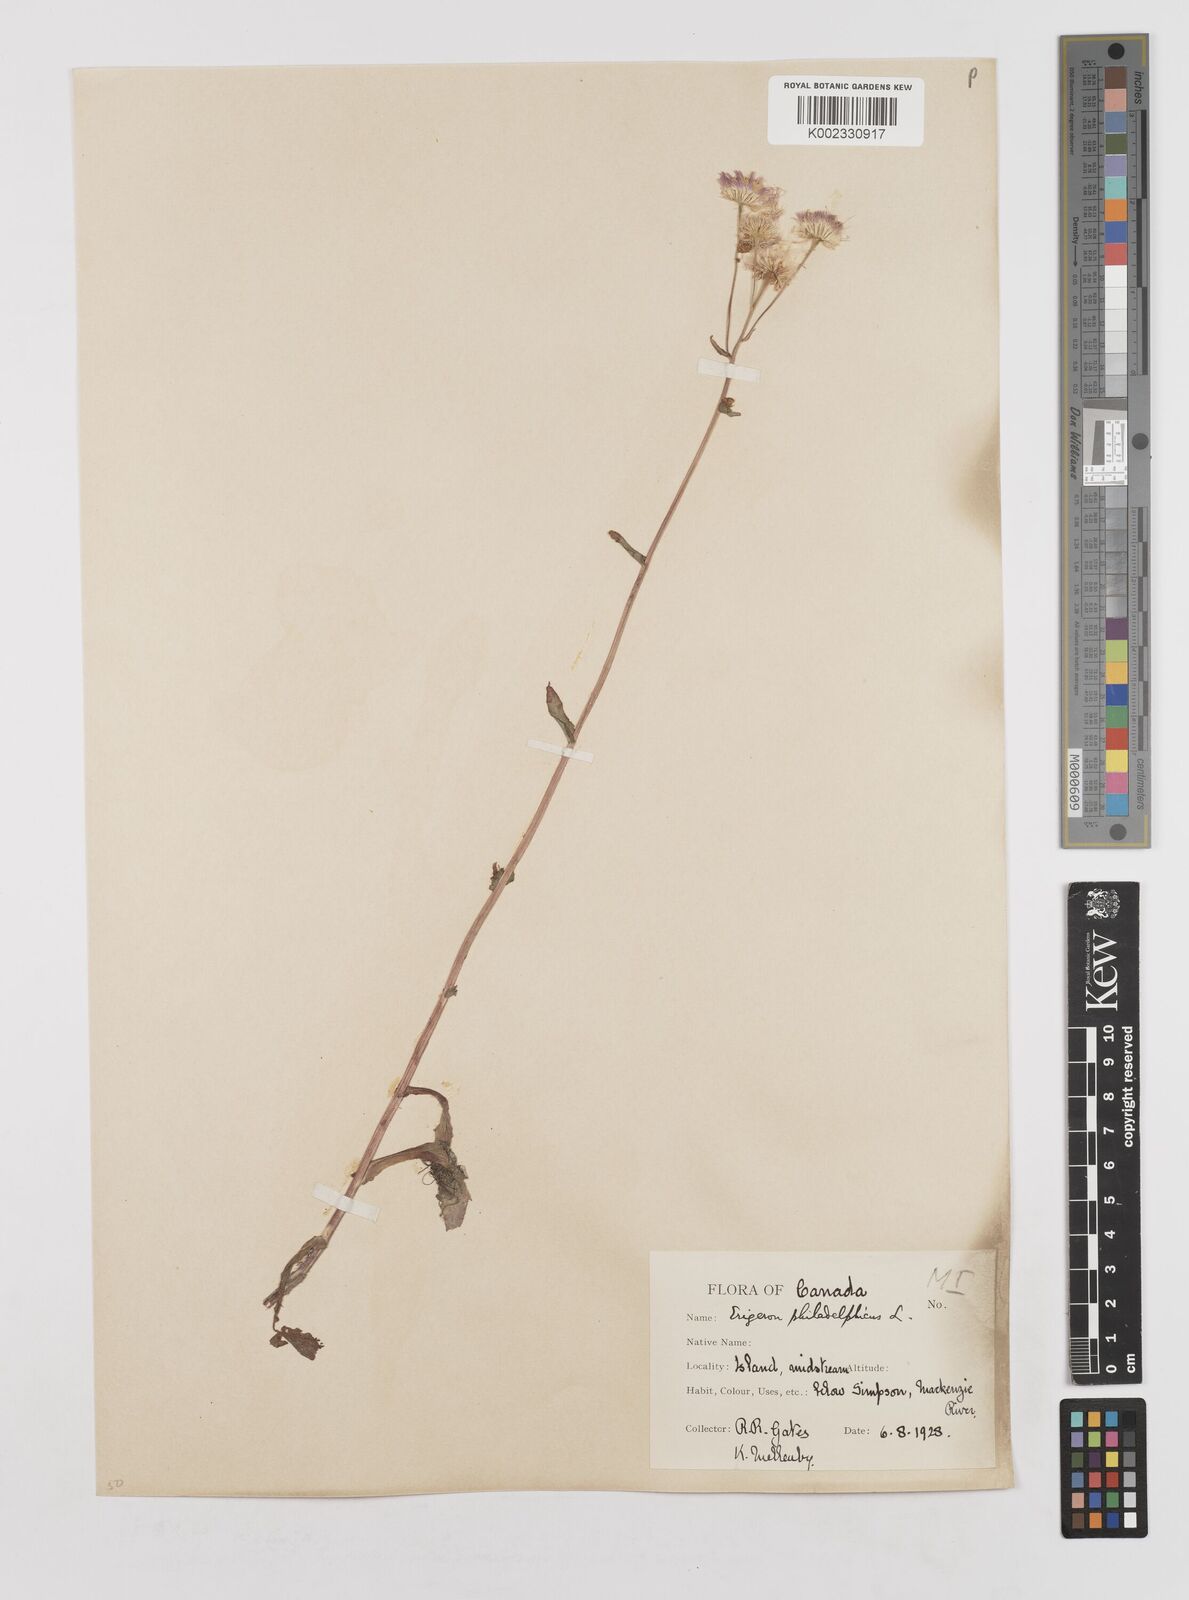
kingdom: Plantae
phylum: Tracheophyta
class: Magnoliopsida
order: Asterales
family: Asteraceae
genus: Erigeron
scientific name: Erigeron philadelphicus
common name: Robin's-plantain
